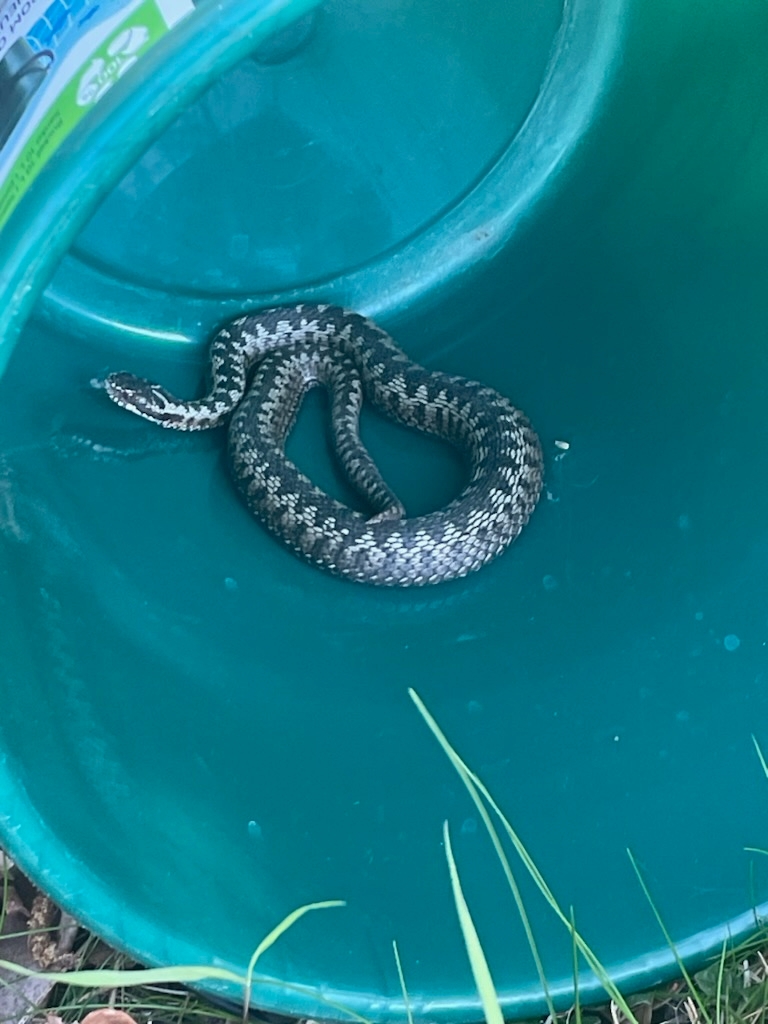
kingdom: Animalia
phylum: Chordata
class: Squamata
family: Viperidae
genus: Vipera
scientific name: Vipera berus
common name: Hugorm
